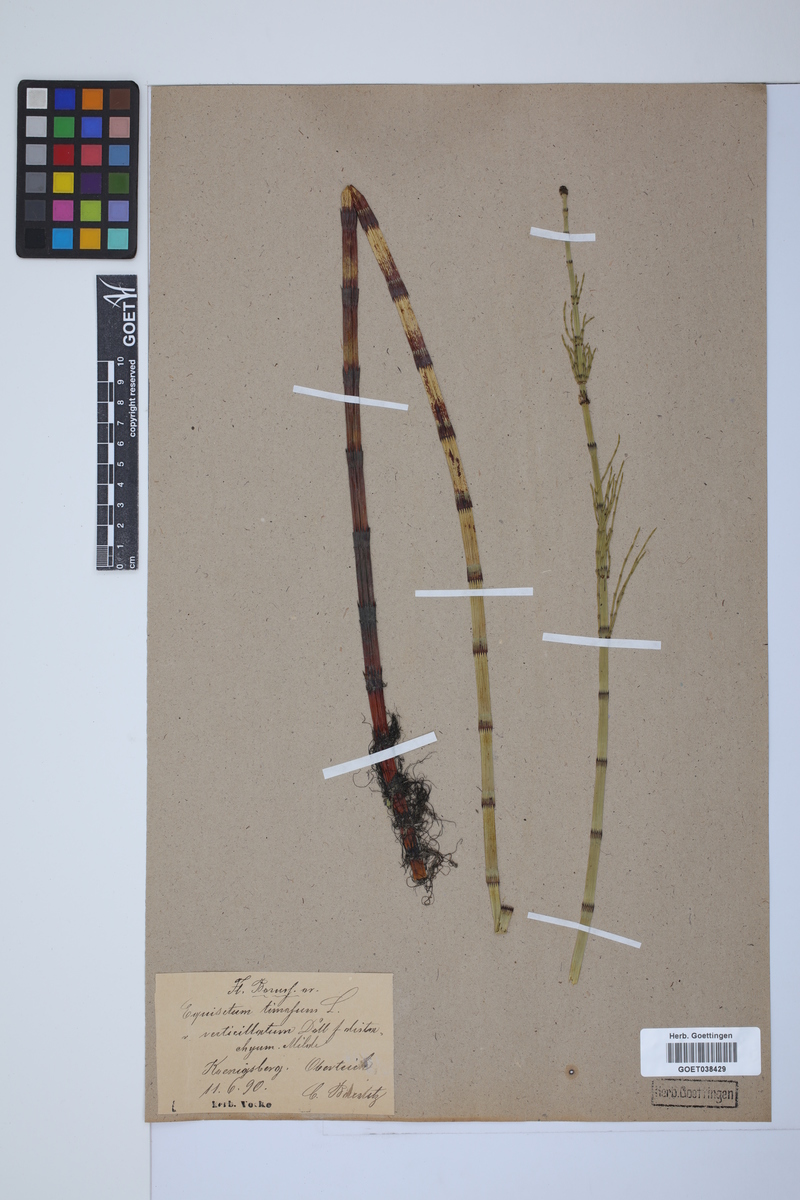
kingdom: Plantae
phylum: Tracheophyta
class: Polypodiopsida
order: Equisetales
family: Equisetaceae
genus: Equisetum
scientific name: Equisetum fluviatile
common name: Water horsetail
